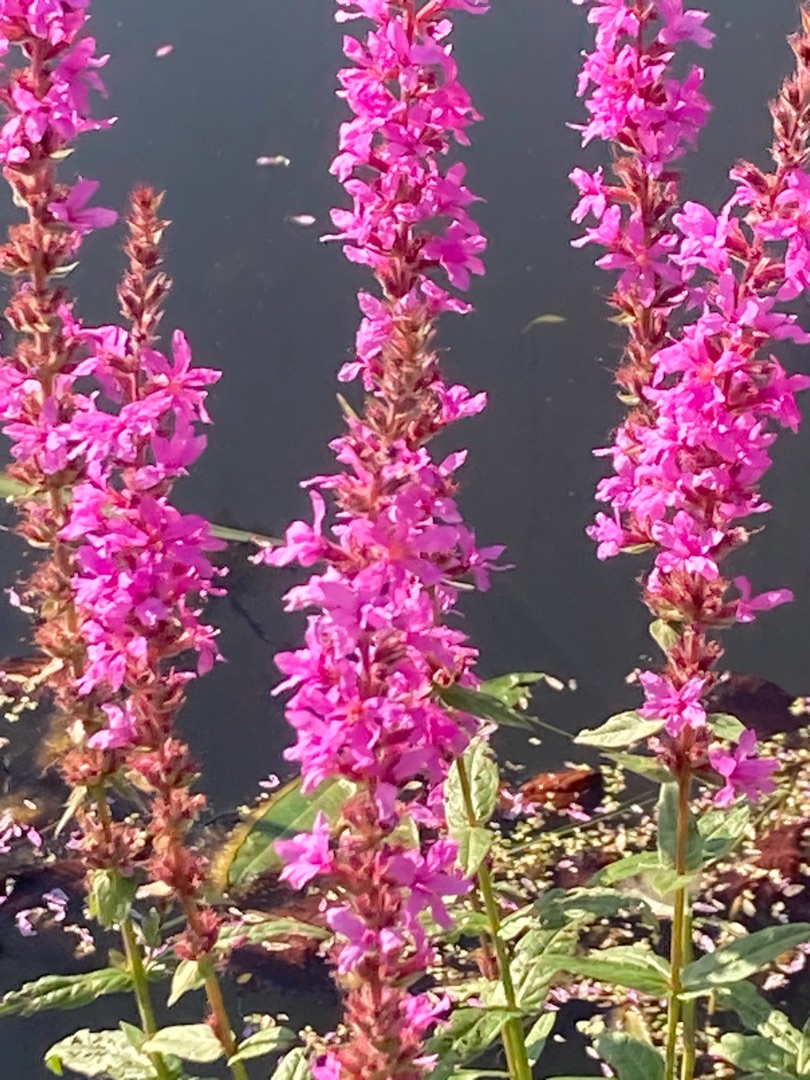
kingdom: Plantae
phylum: Tracheophyta
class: Magnoliopsida
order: Myrtales
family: Lythraceae
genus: Lythrum
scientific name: Lythrum salicaria
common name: Kattehale
